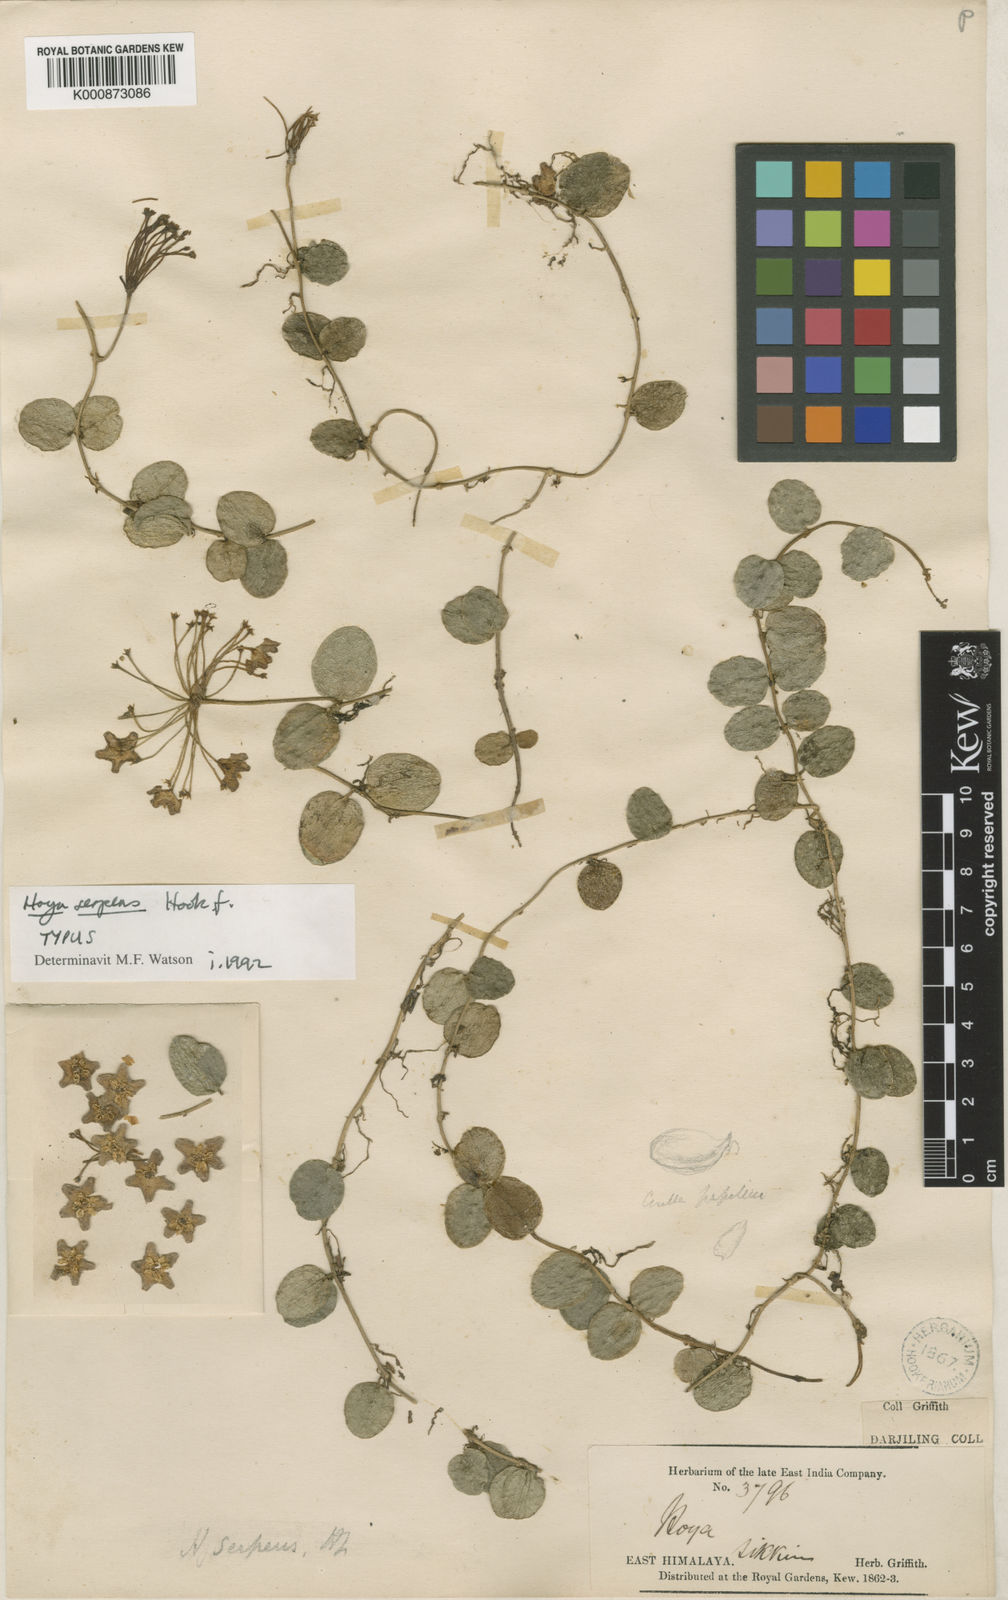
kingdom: Plantae
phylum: Tracheophyta
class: Magnoliopsida
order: Gentianales
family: Apocynaceae
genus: Hoya
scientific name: Hoya serpens
